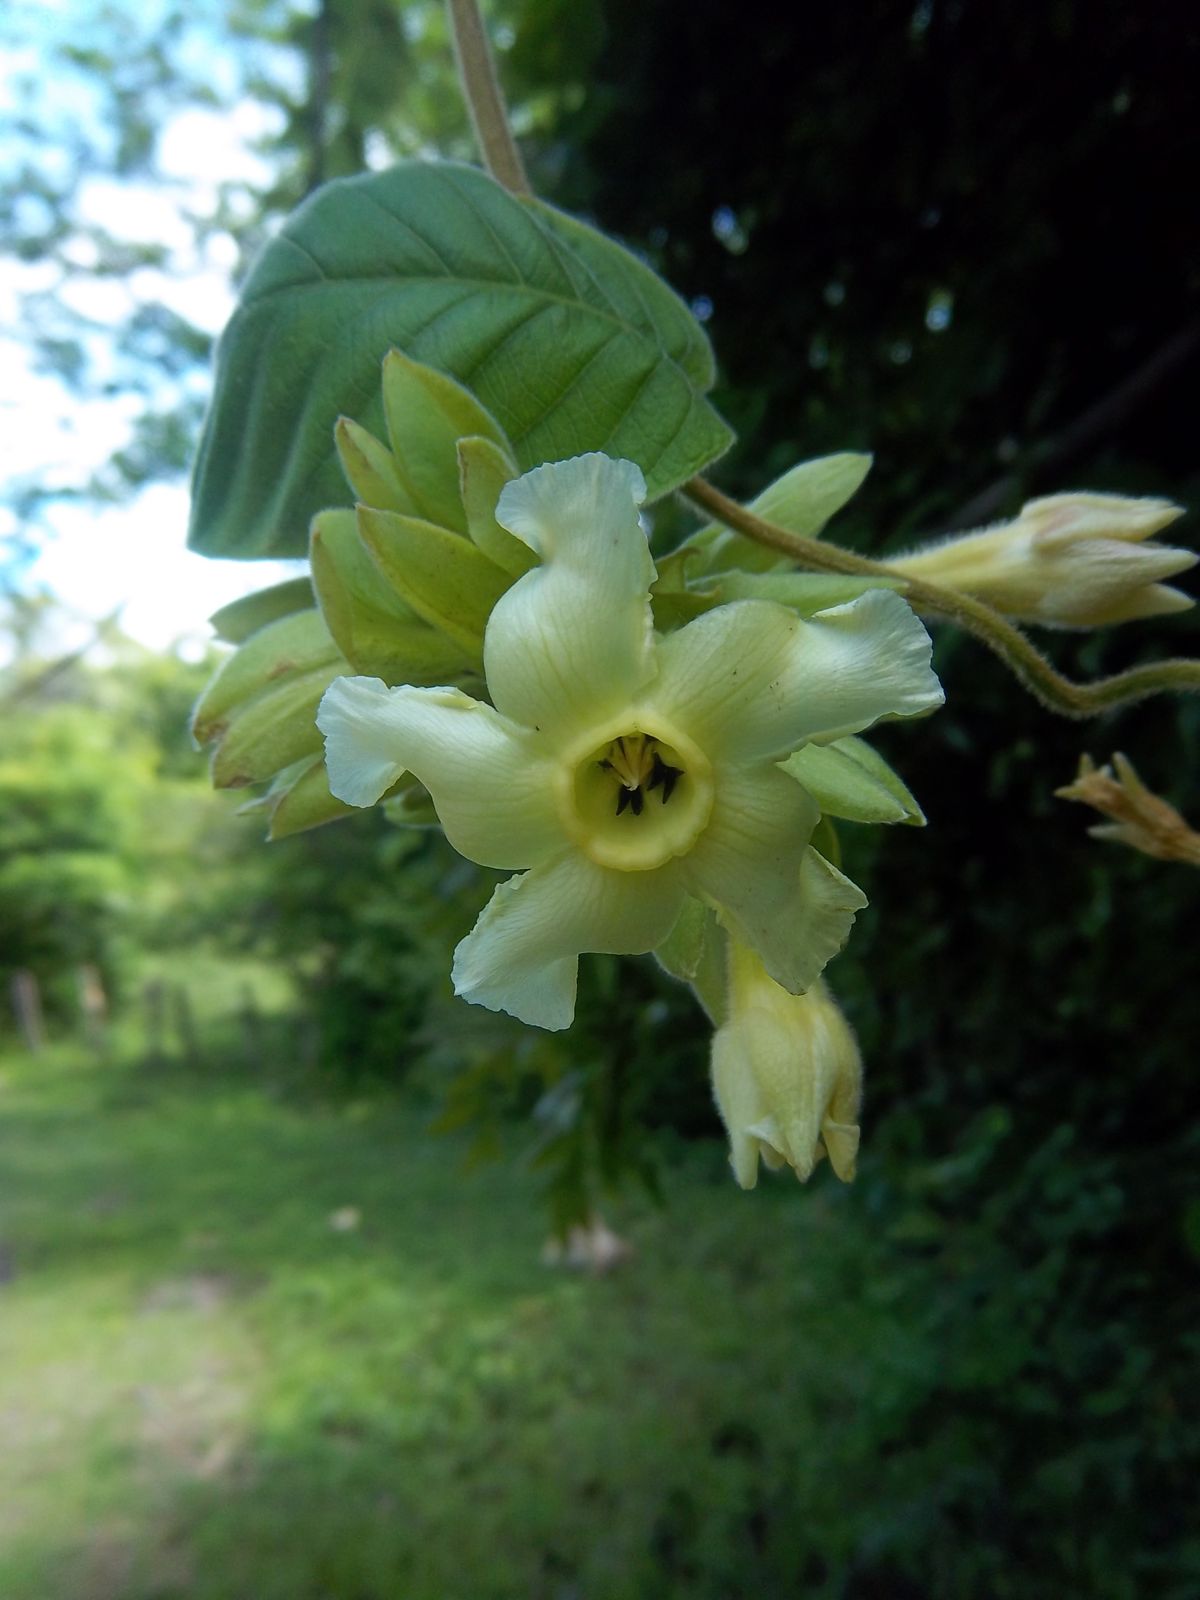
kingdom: Plantae
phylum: Tracheophyta
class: Magnoliopsida
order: Gentianales
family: Apocynaceae
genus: Prestonia
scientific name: Prestonia mexicana
